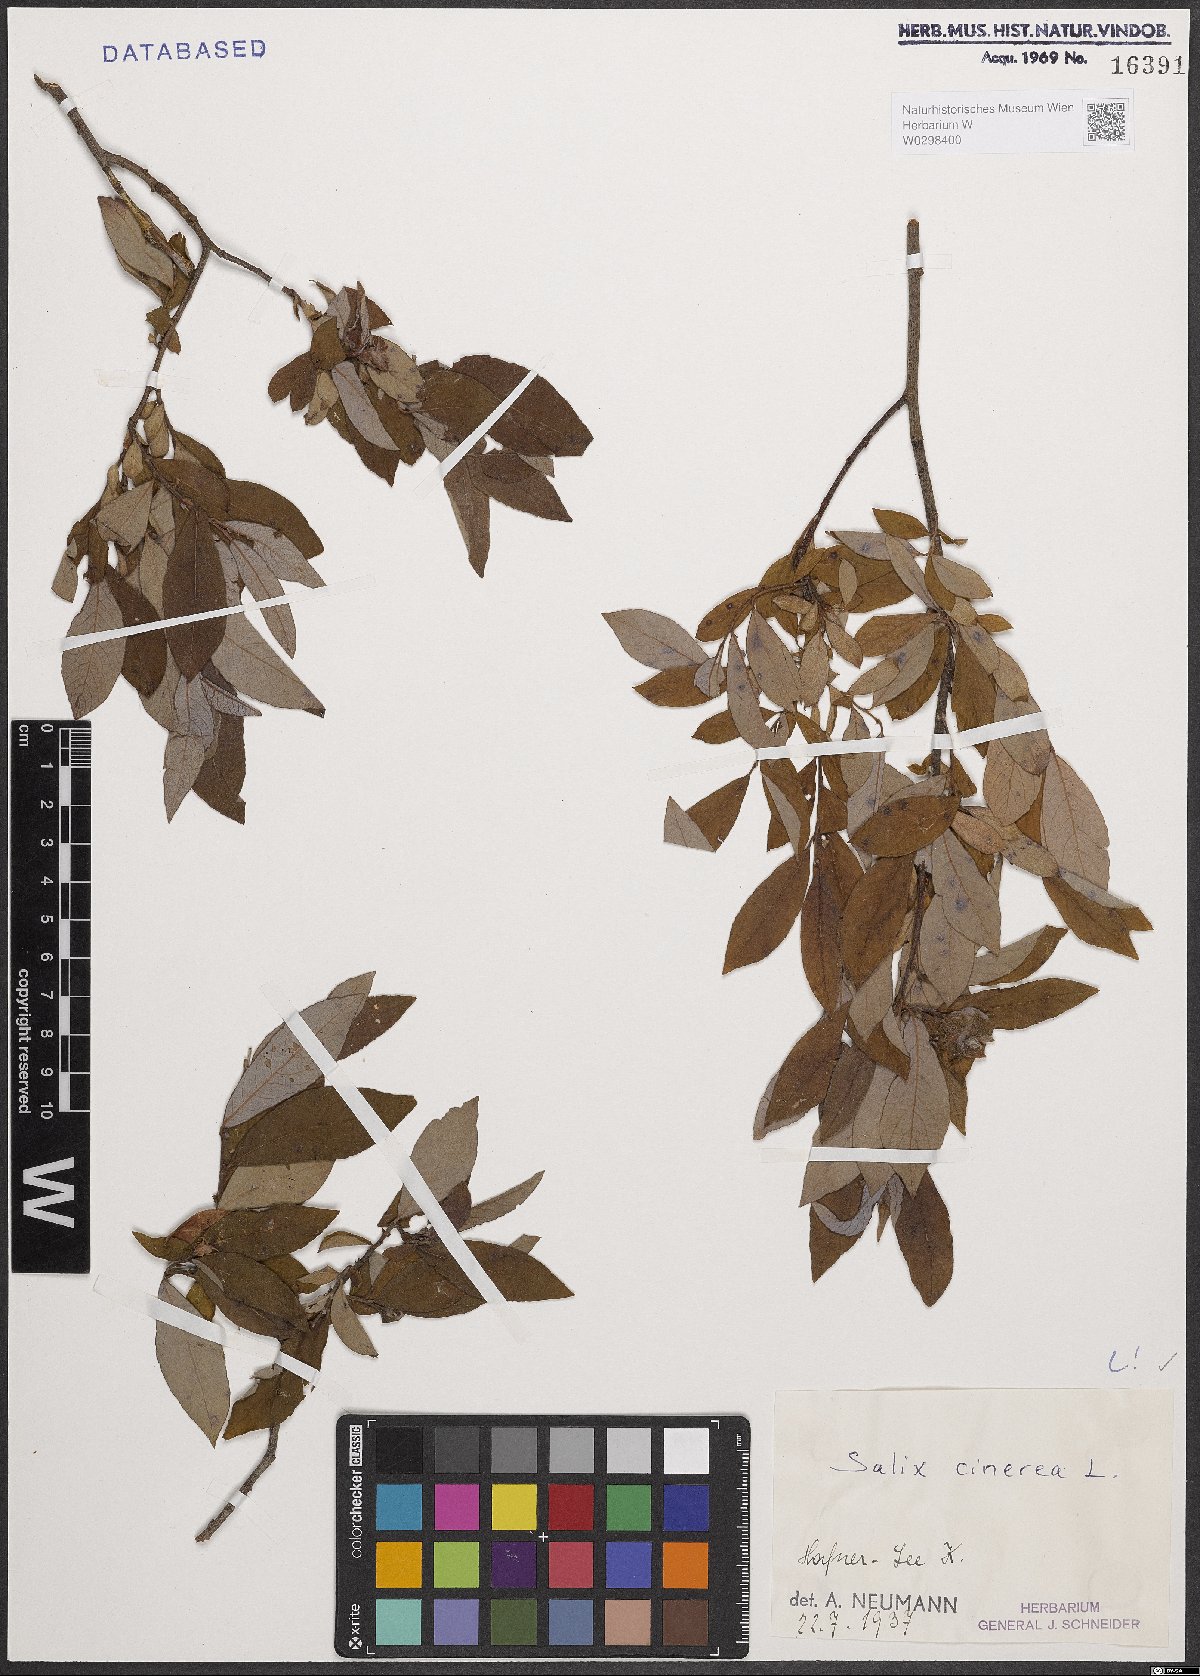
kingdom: Plantae
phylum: Tracheophyta
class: Magnoliopsida
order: Malpighiales
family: Salicaceae
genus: Salix
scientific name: Salix cinerea
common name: Common sallow
